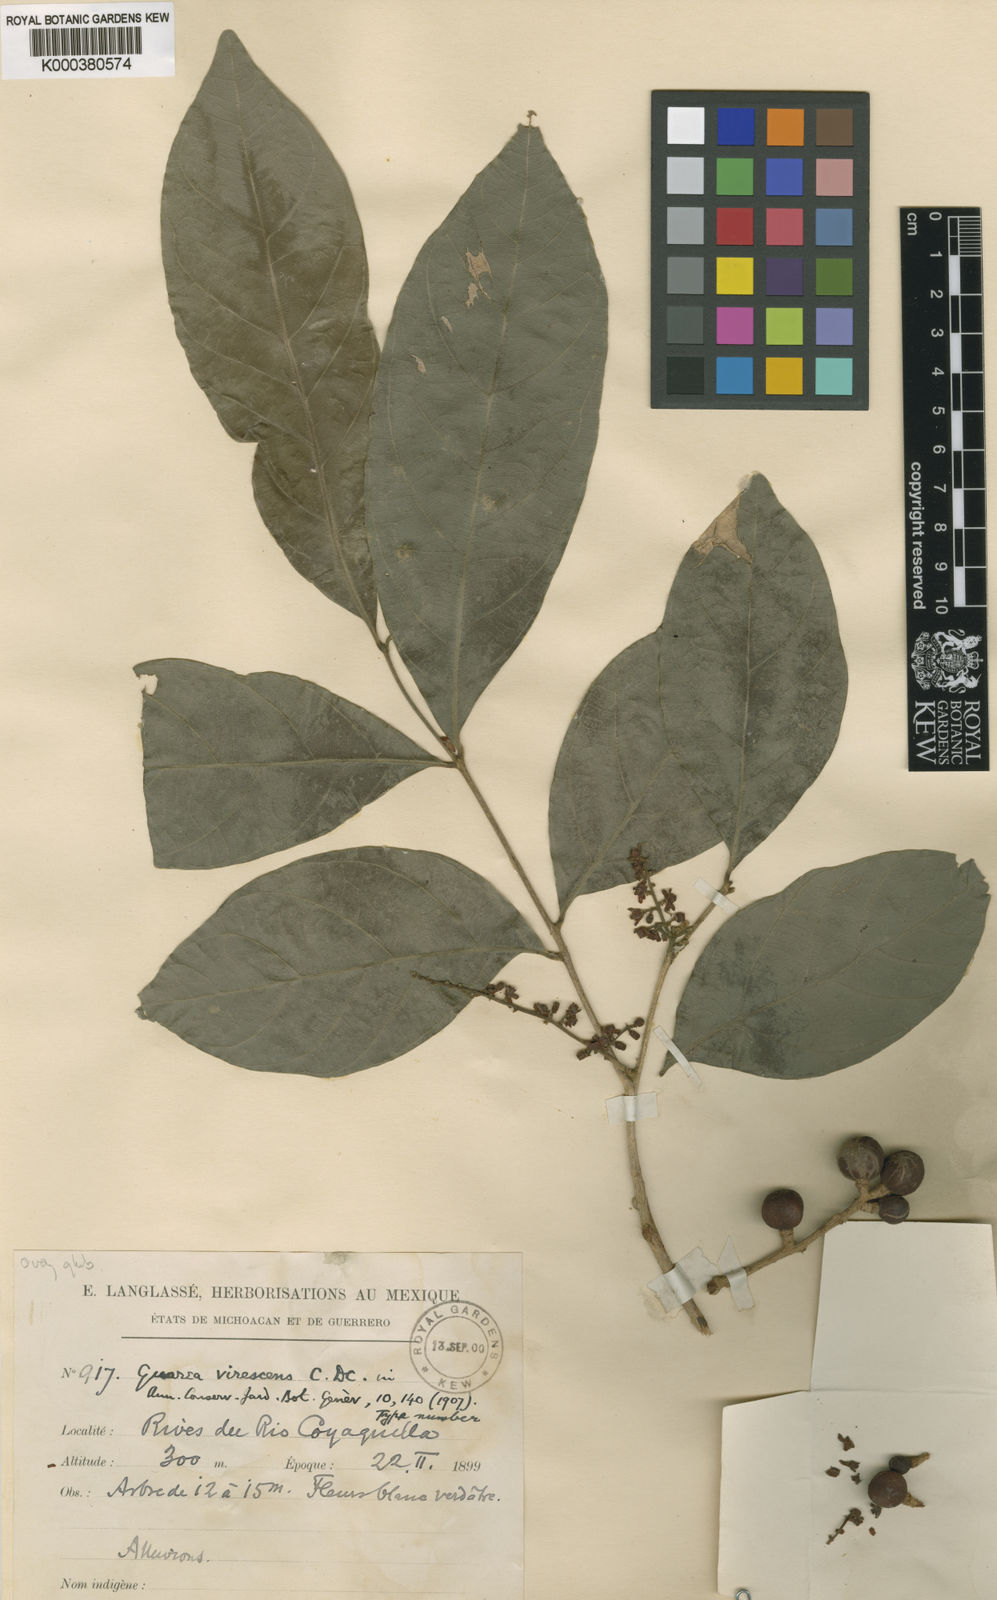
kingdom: Plantae
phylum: Tracheophyta
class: Magnoliopsida
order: Sapindales
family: Meliaceae
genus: Guarea
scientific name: Guarea glabra
